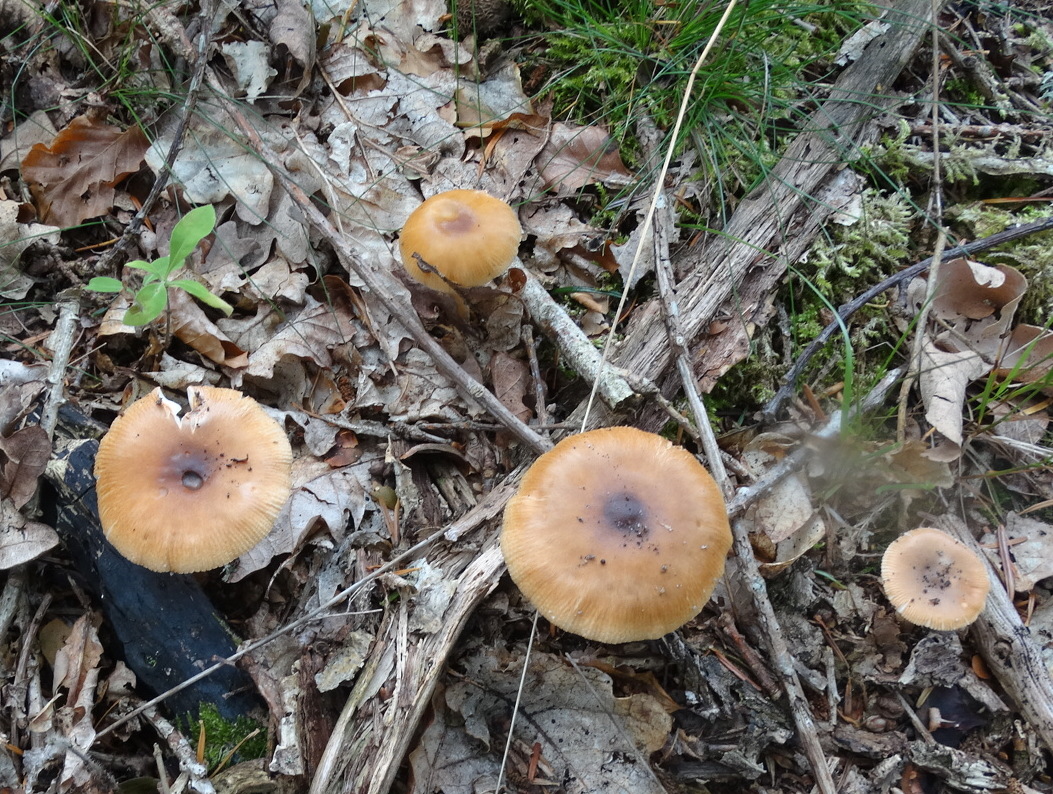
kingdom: Fungi
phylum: Basidiomycota
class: Agaricomycetes
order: Agaricales
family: Amanitaceae
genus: Amanita
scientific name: Amanita fulva
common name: brun kam-fluesvamp
